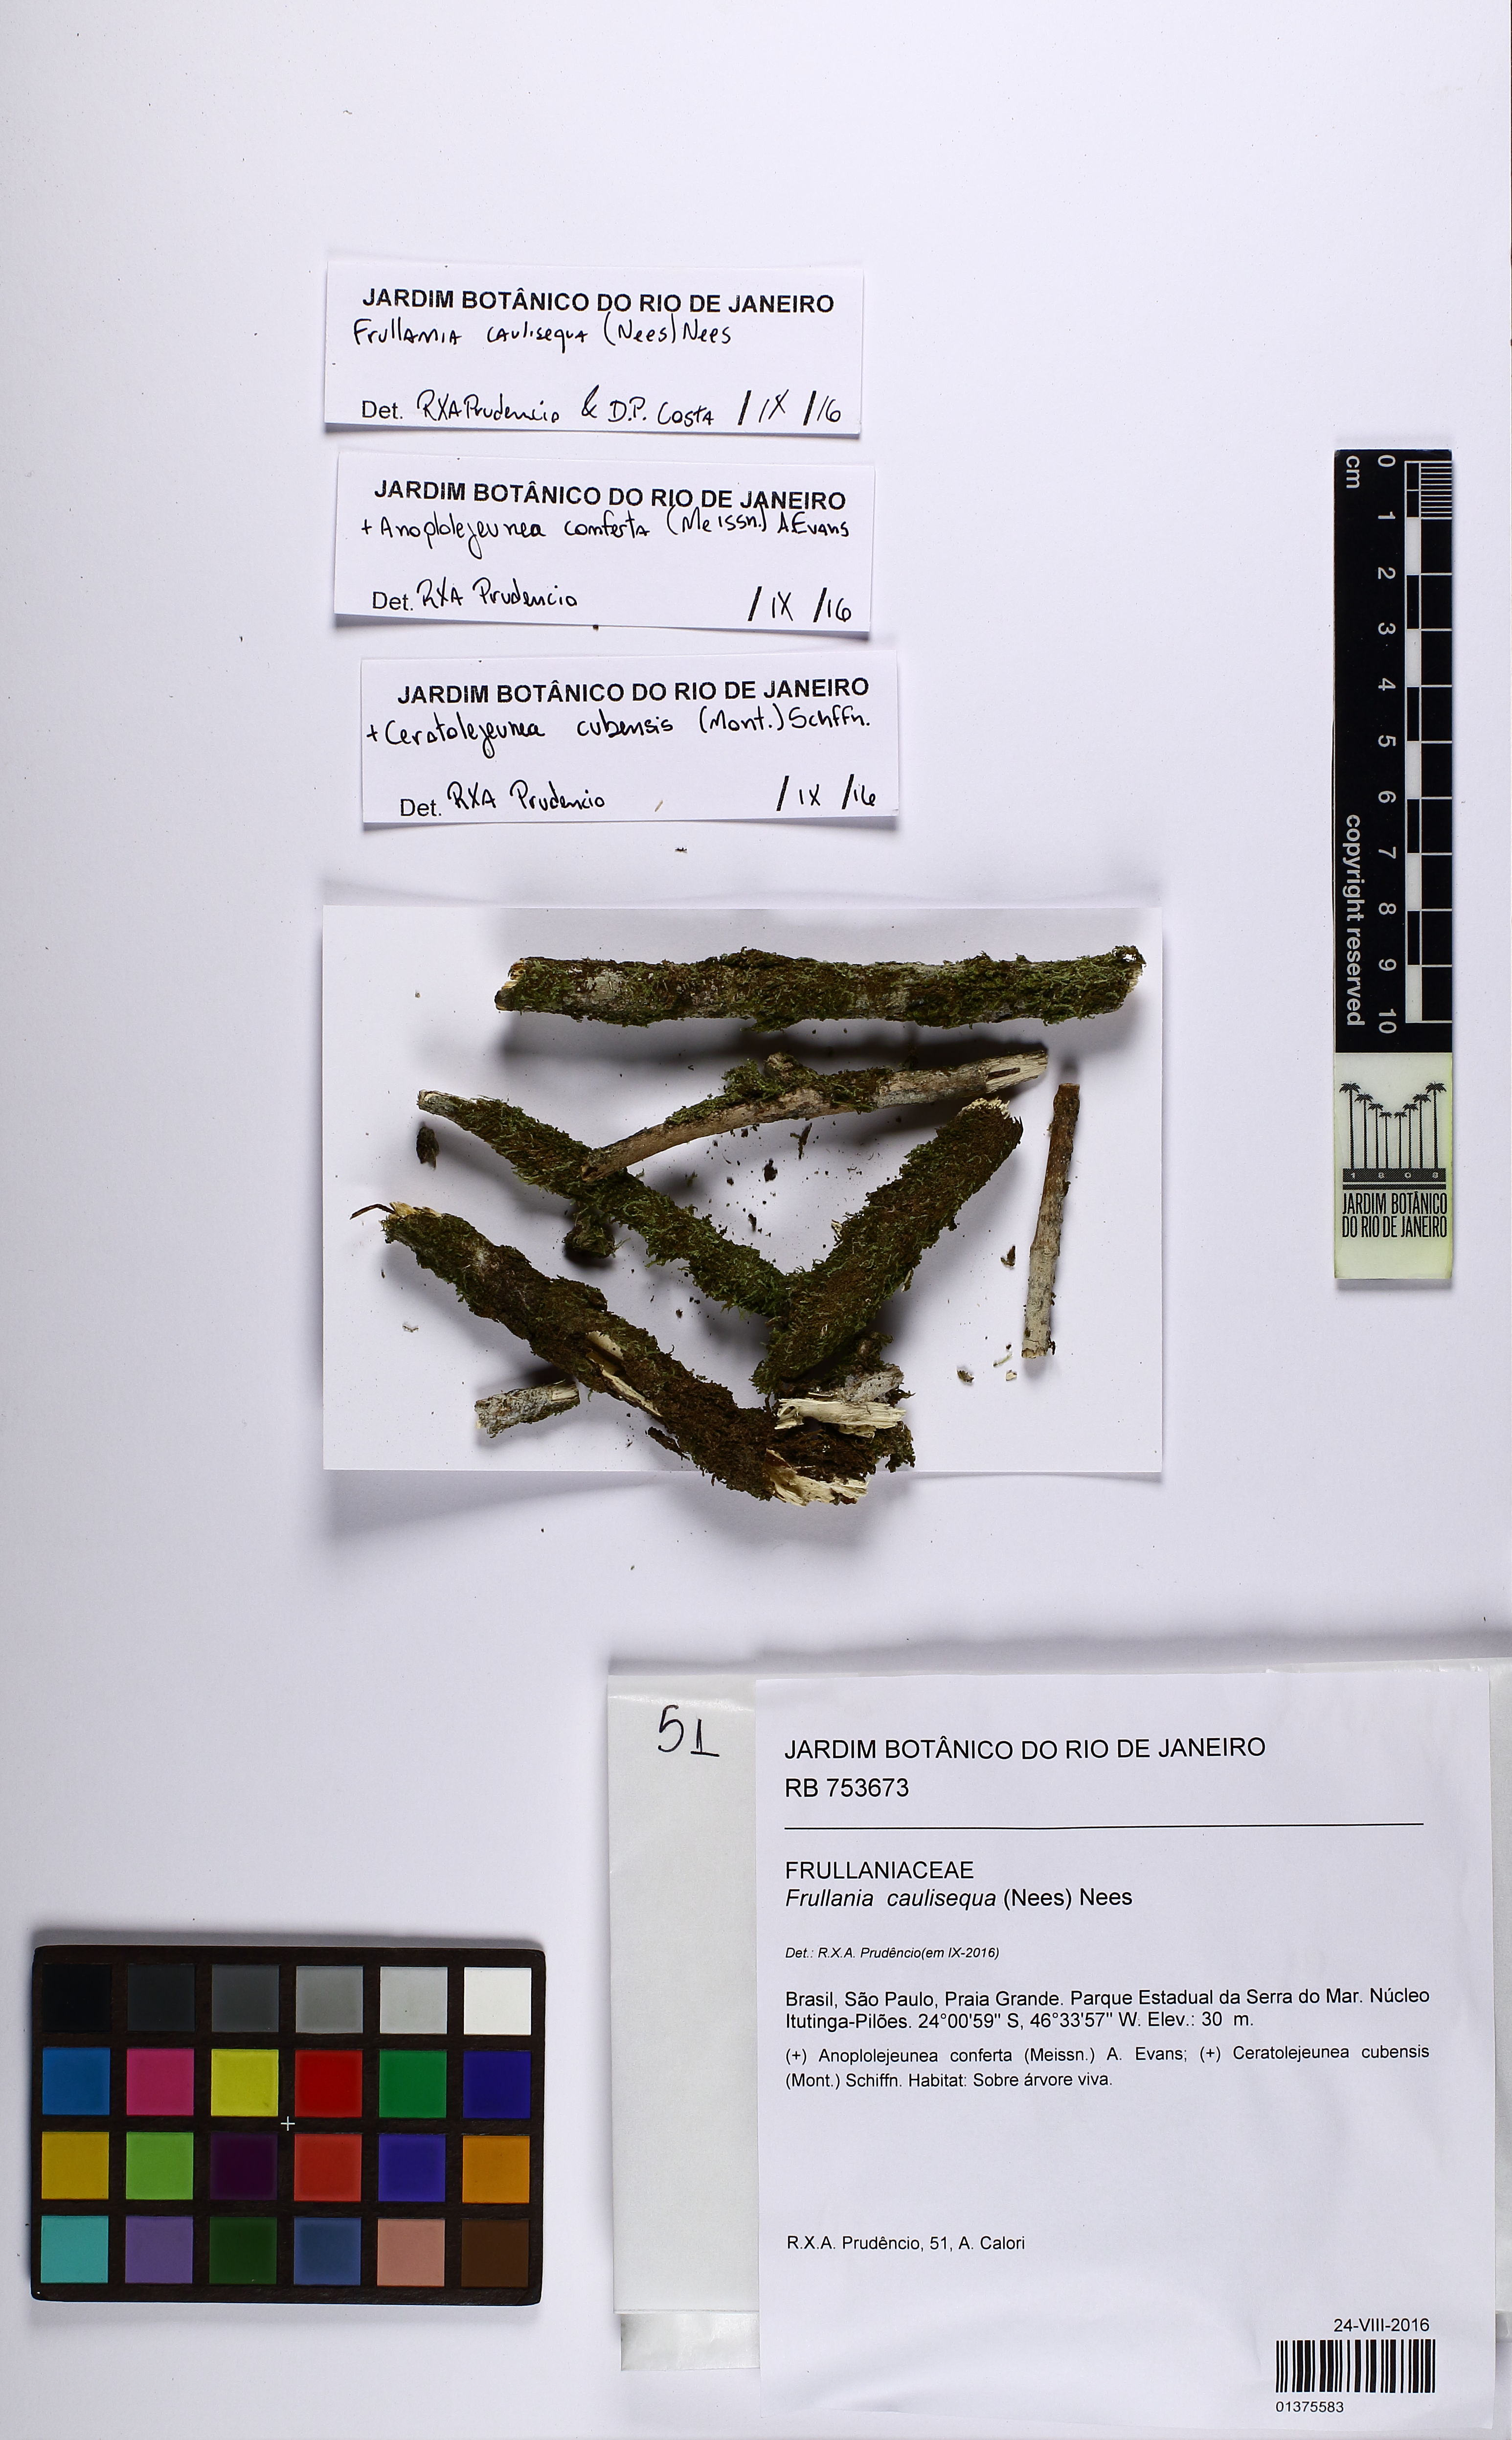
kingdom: Plantae
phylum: Marchantiophyta
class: Jungermanniopsida
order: Porellales
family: Frullaniaceae
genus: Frullania
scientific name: Frullania caulisequa
